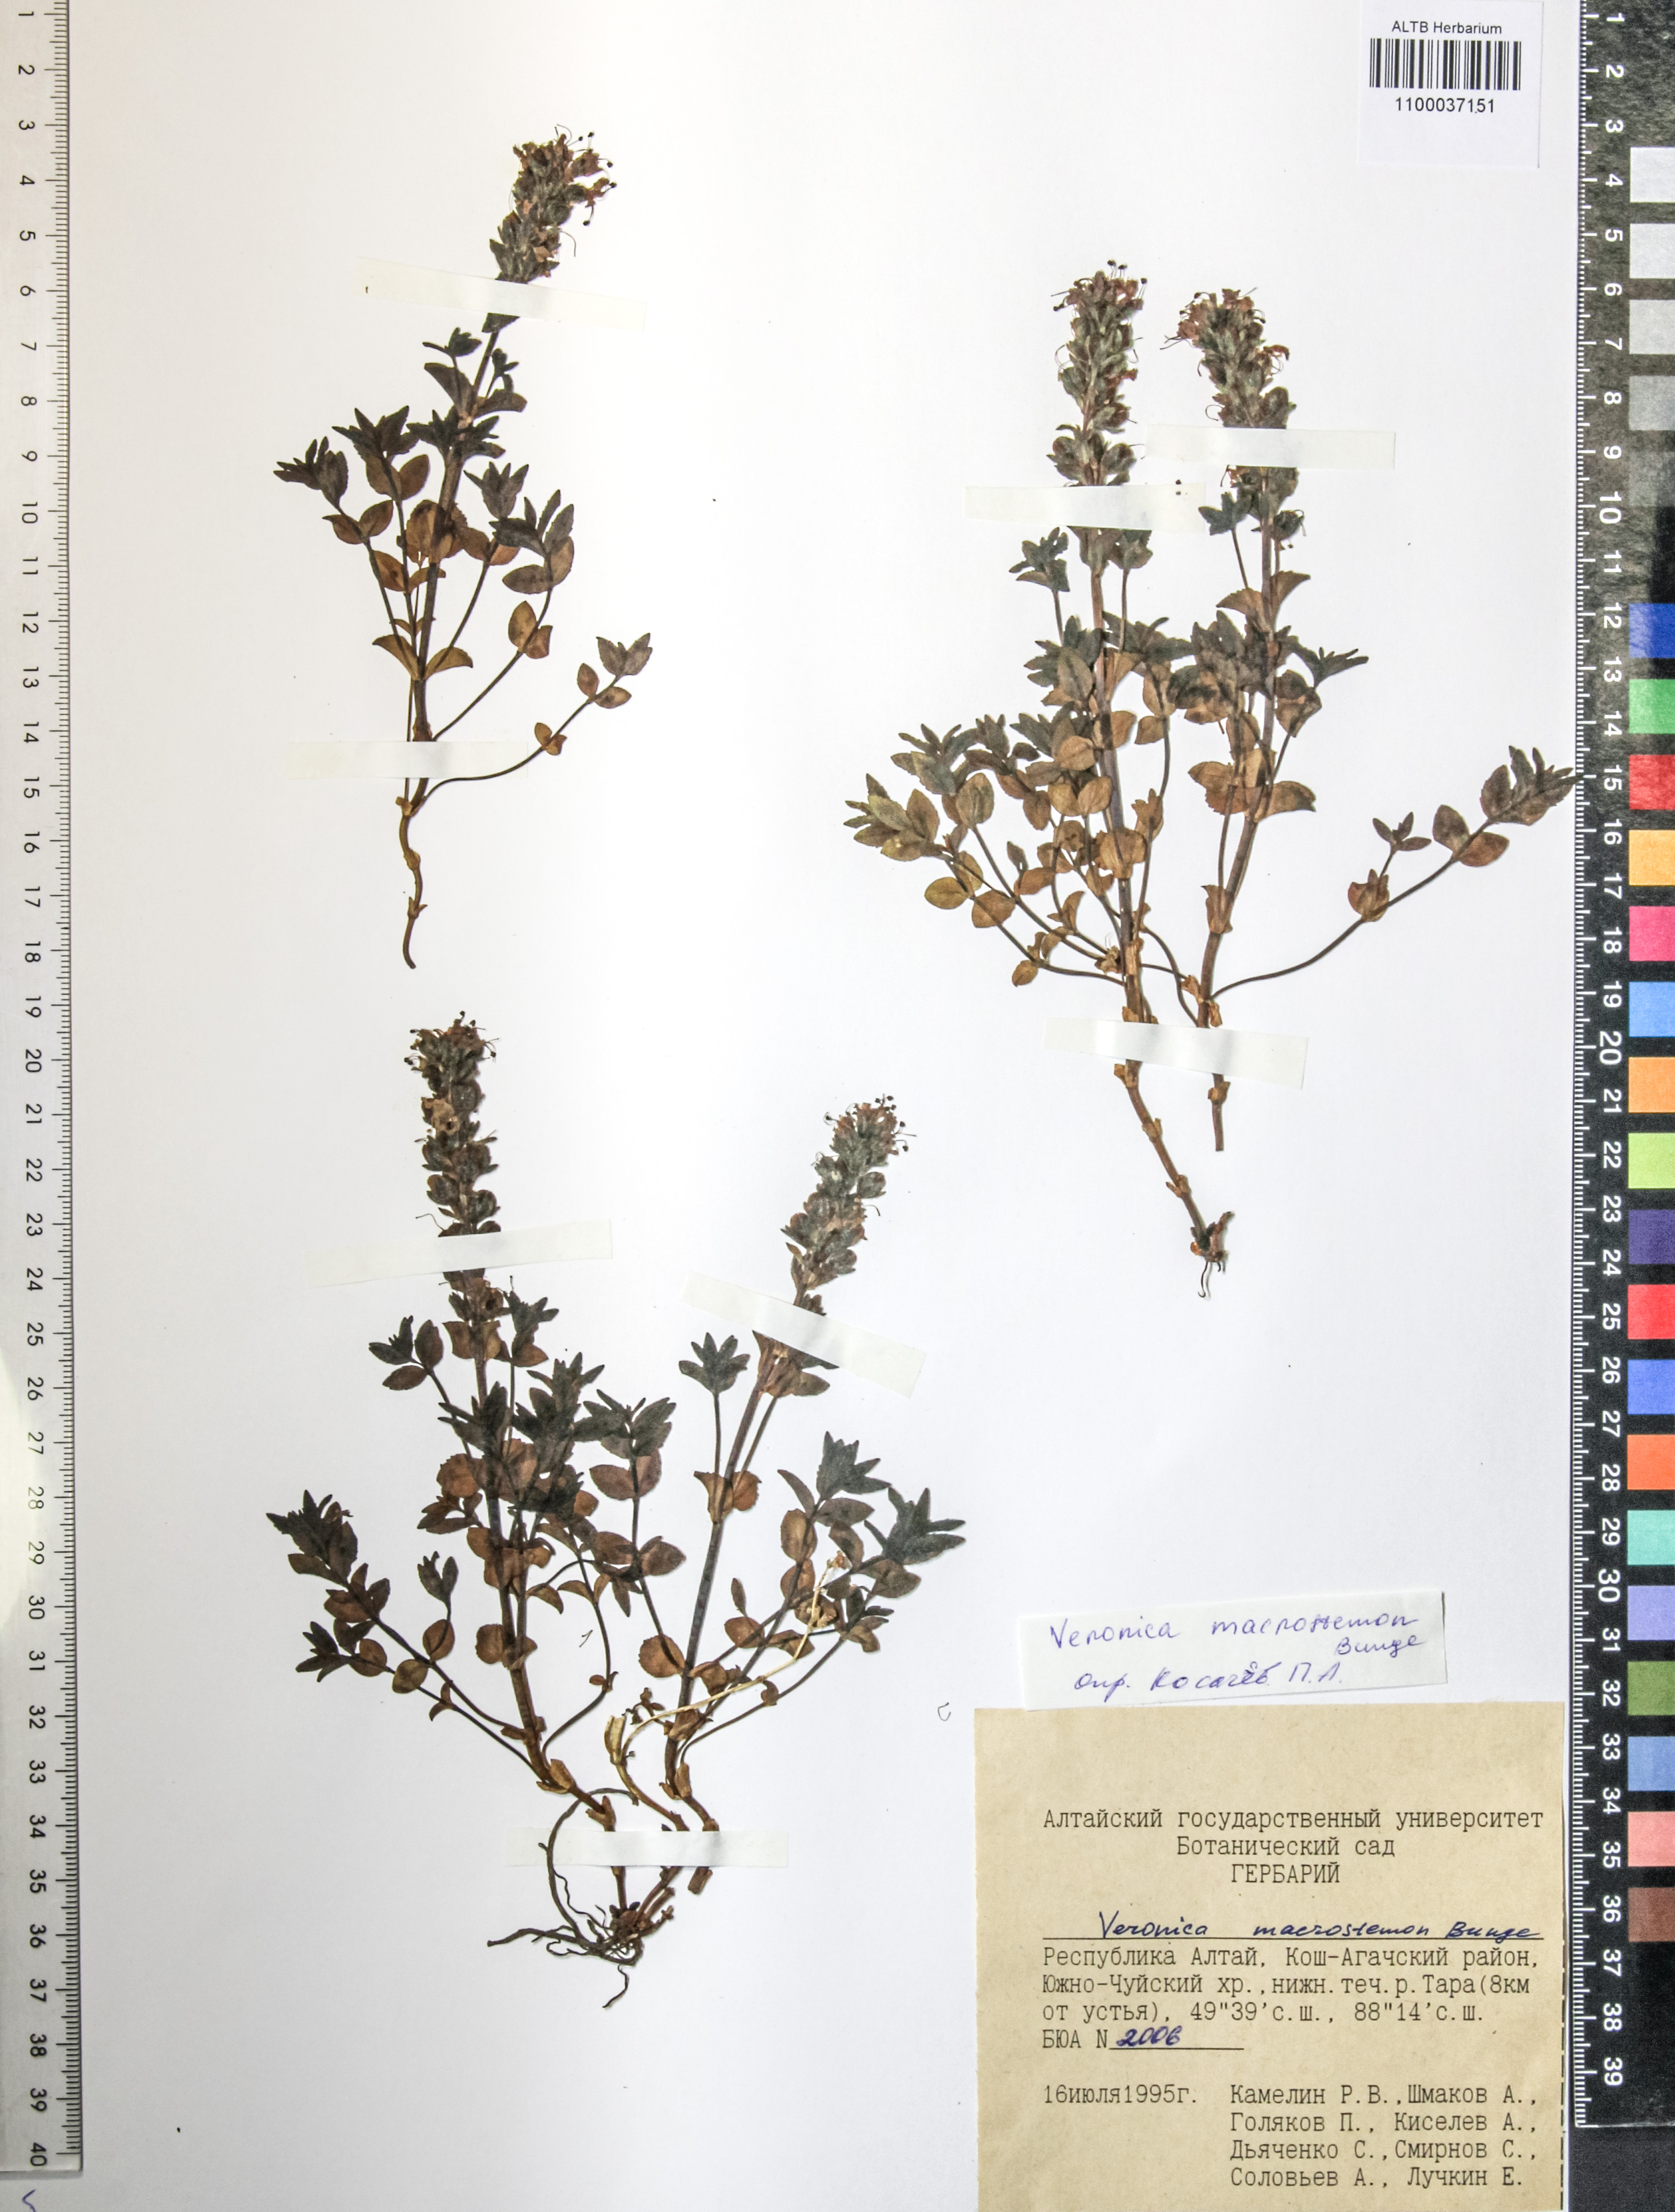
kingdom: Plantae
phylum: Tracheophyta
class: Magnoliopsida
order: Lamiales
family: Plantaginaceae
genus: Veronica
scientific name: Veronica macrostemon
